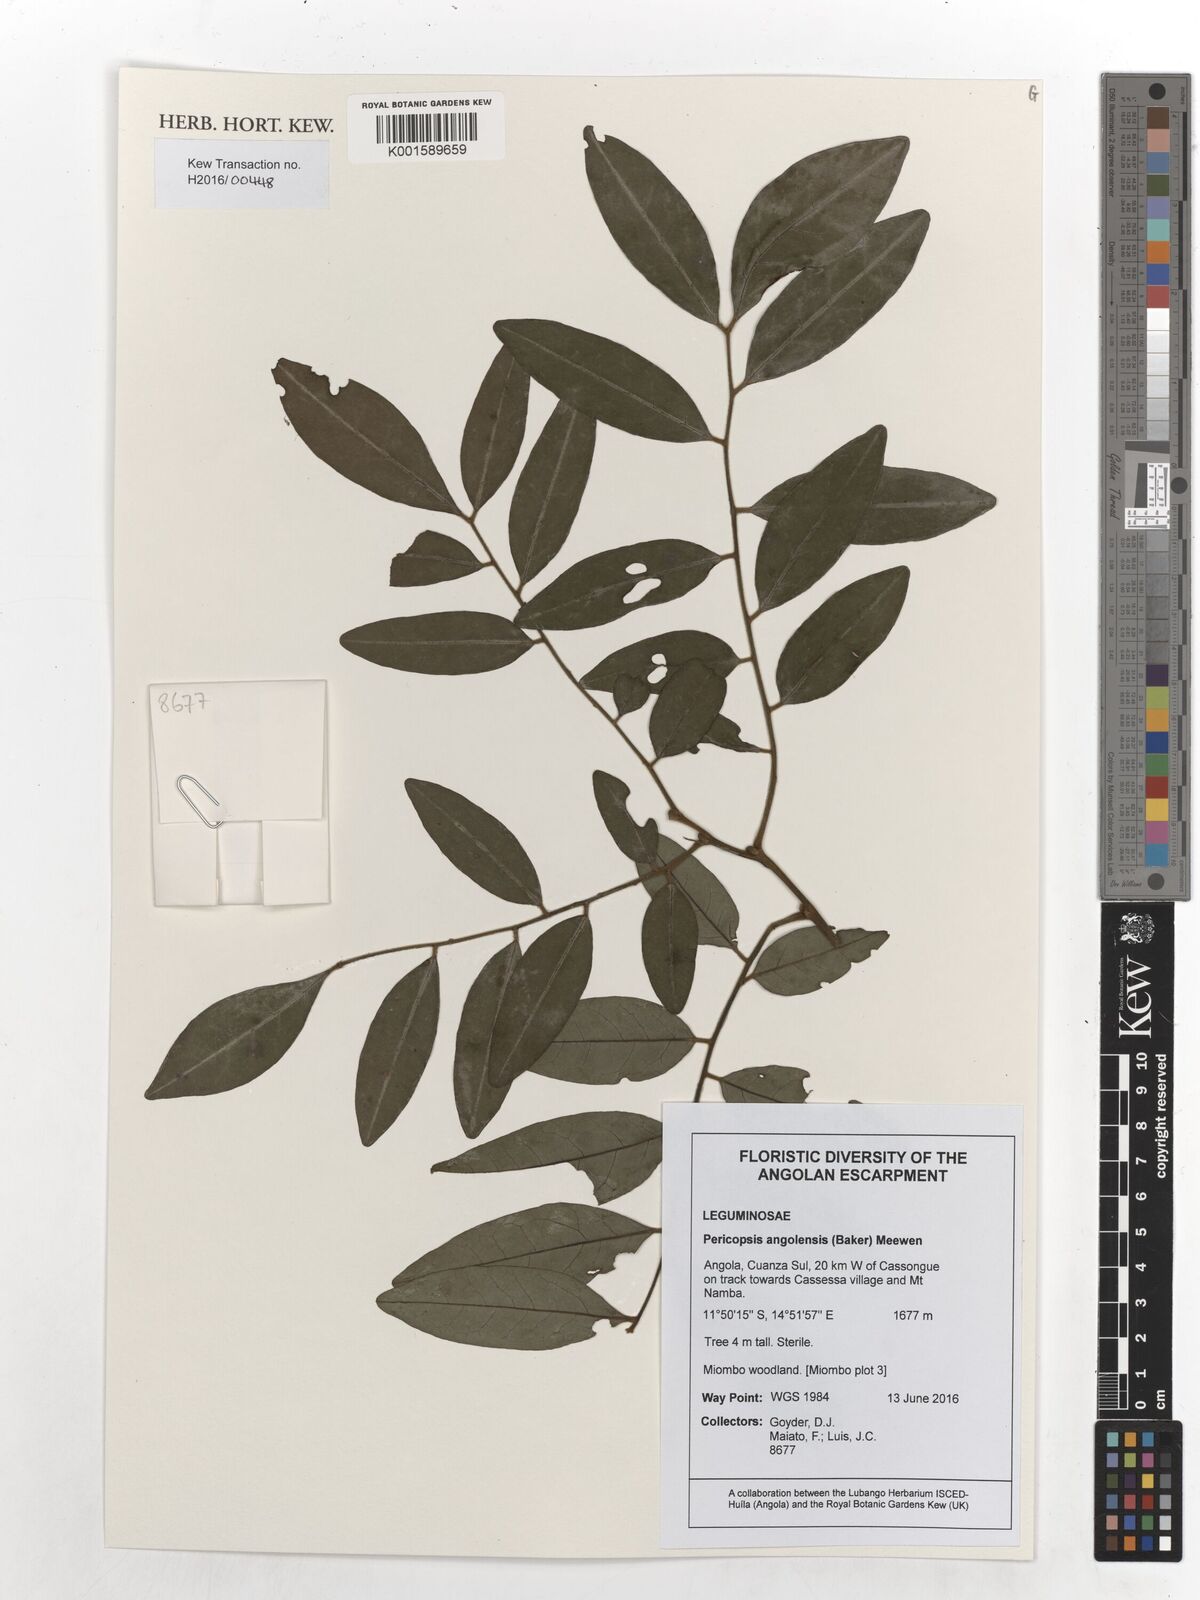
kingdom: Plantae
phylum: Tracheophyta
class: Magnoliopsida
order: Fabales
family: Fabaceae
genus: Pericopsis
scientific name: Pericopsis angolensis
